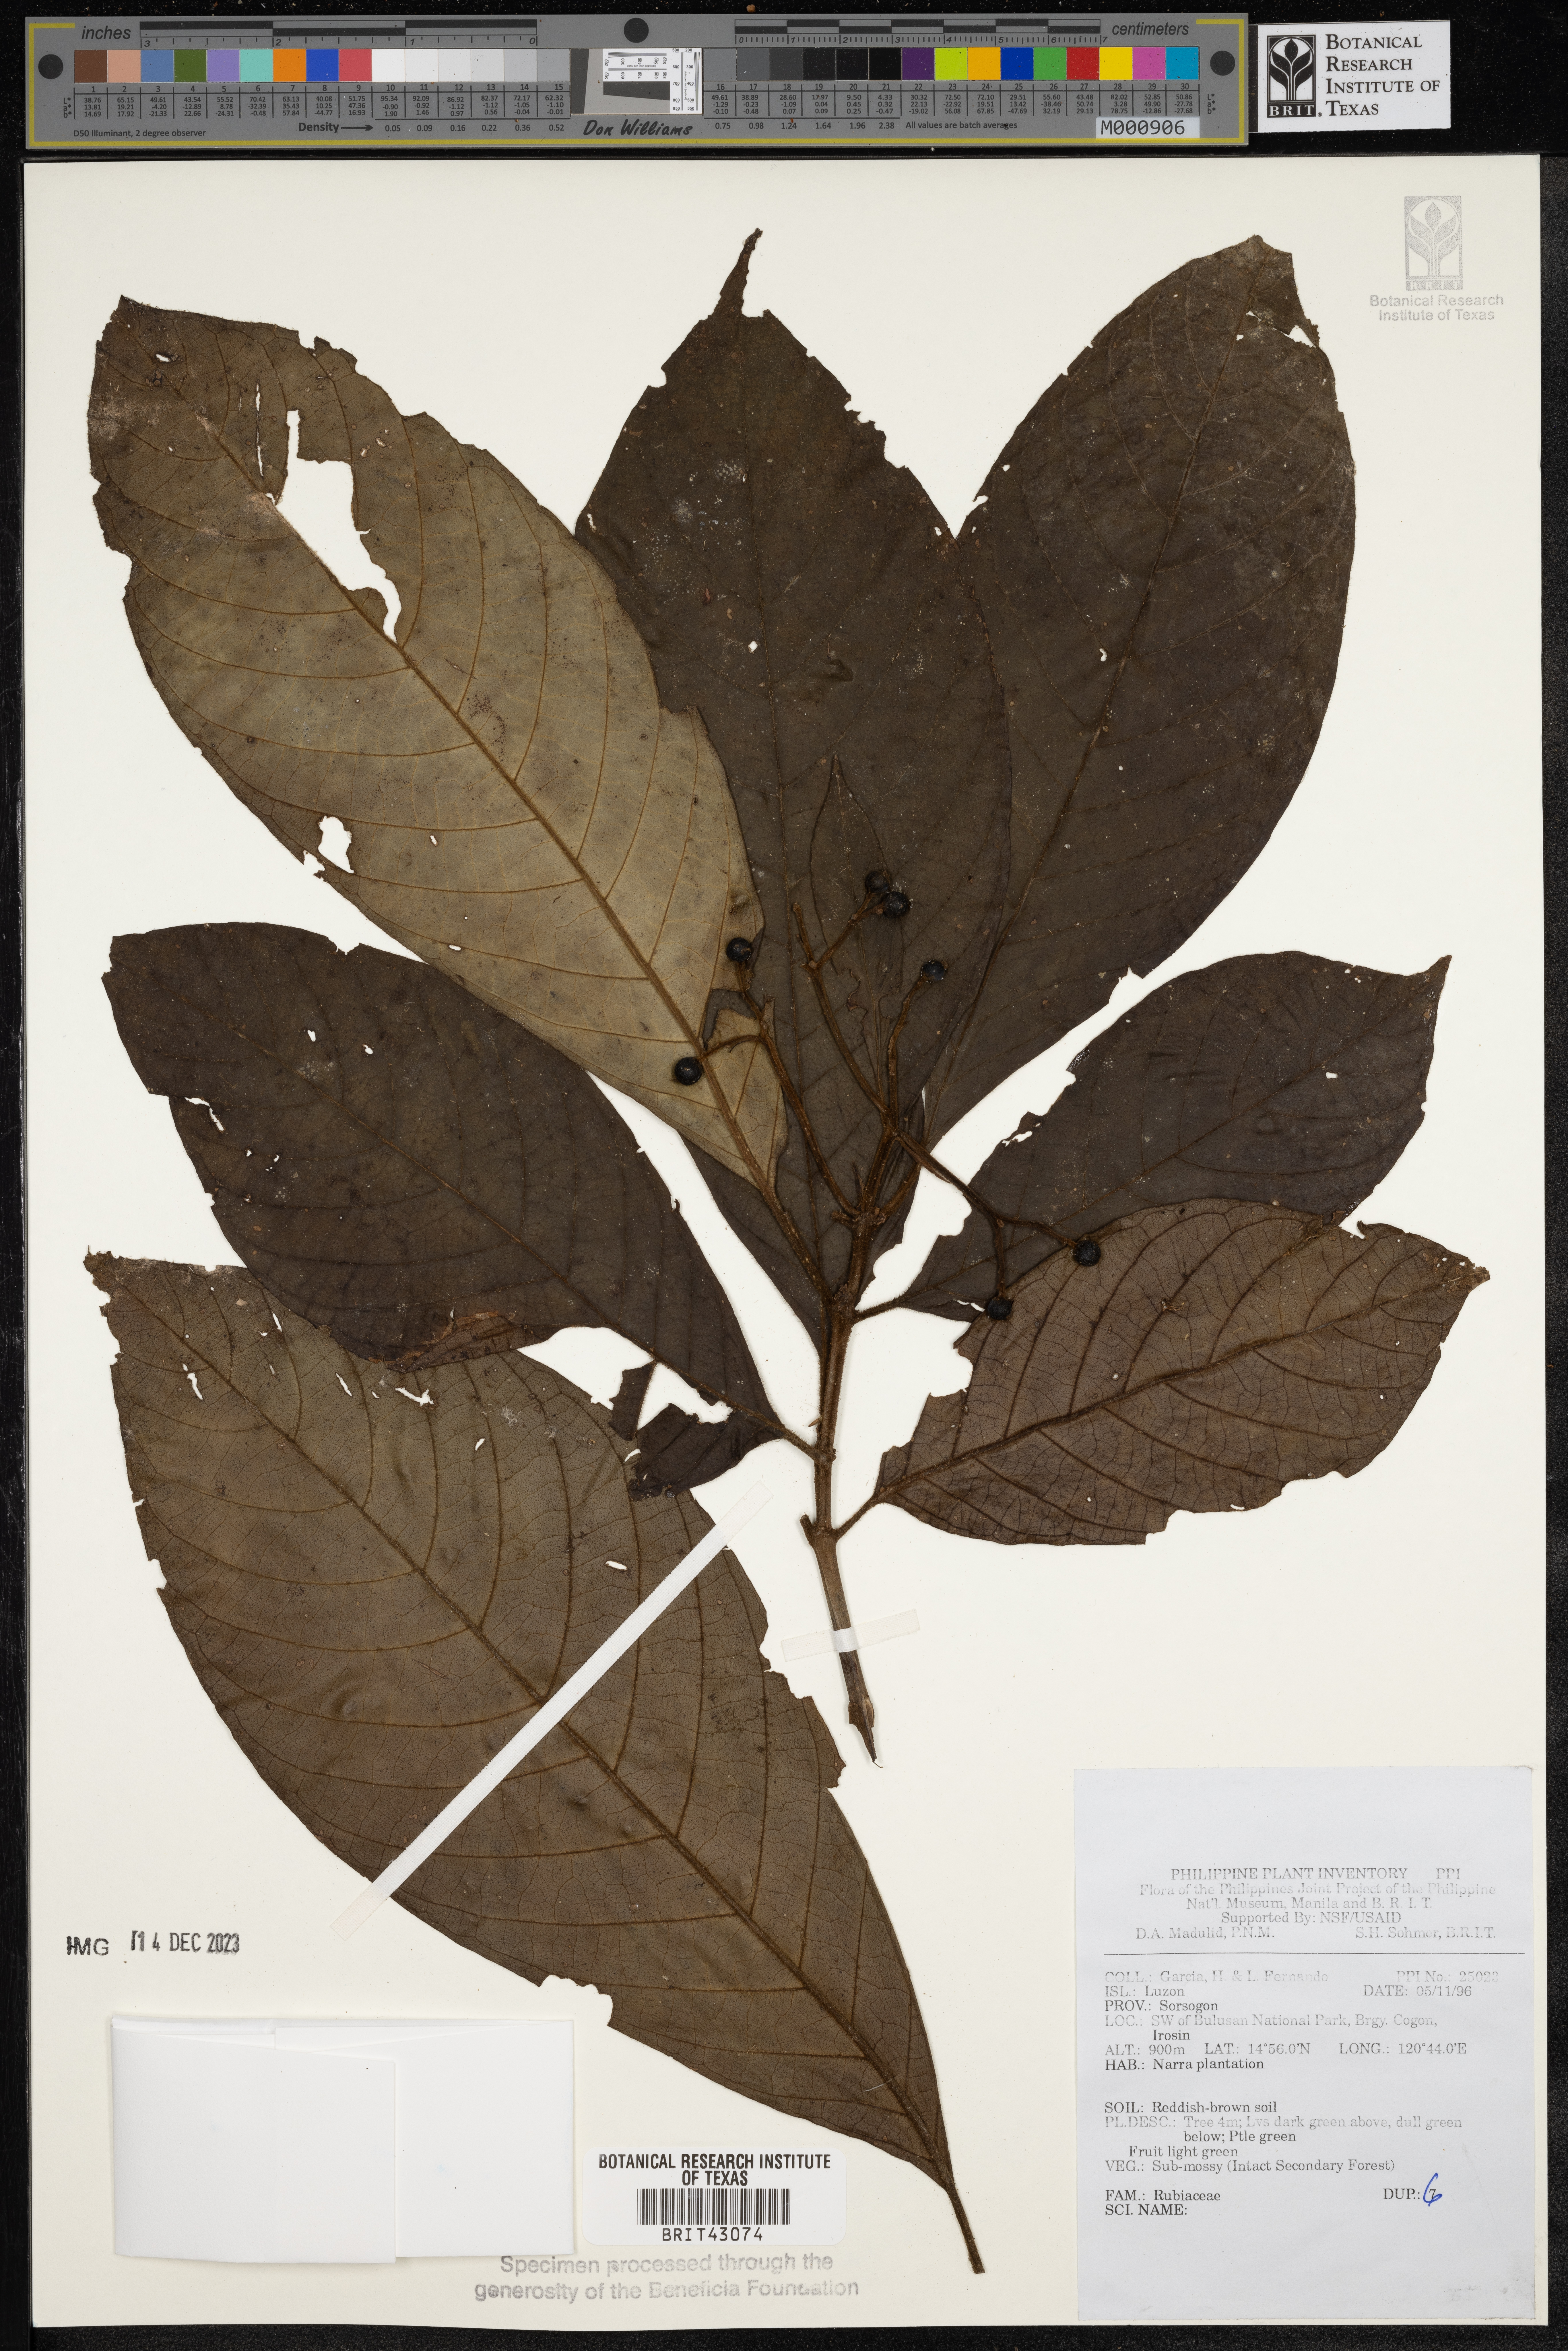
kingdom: Plantae
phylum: Tracheophyta
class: Magnoliopsida
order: Gentianales
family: Rubiaceae
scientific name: Rubiaceae
